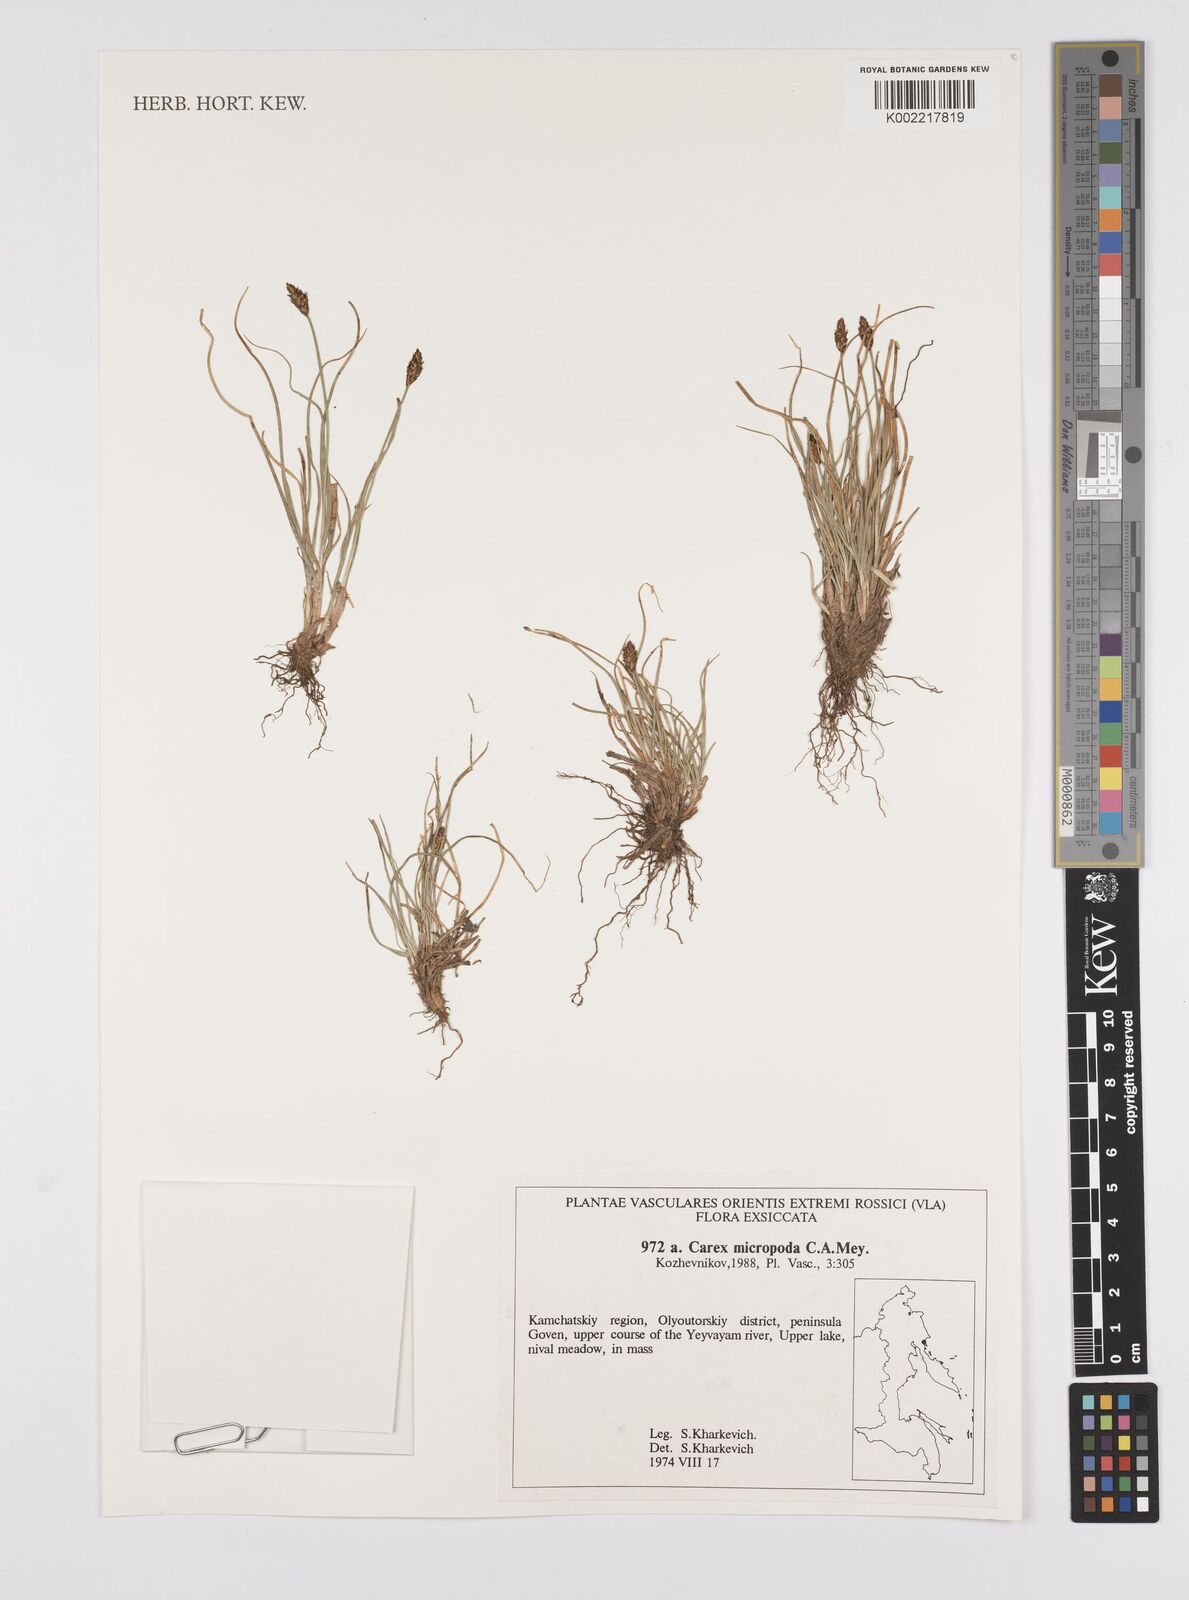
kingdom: Plantae
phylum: Tracheophyta
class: Liliopsida
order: Poales
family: Cyperaceae
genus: Carex
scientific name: Carex
